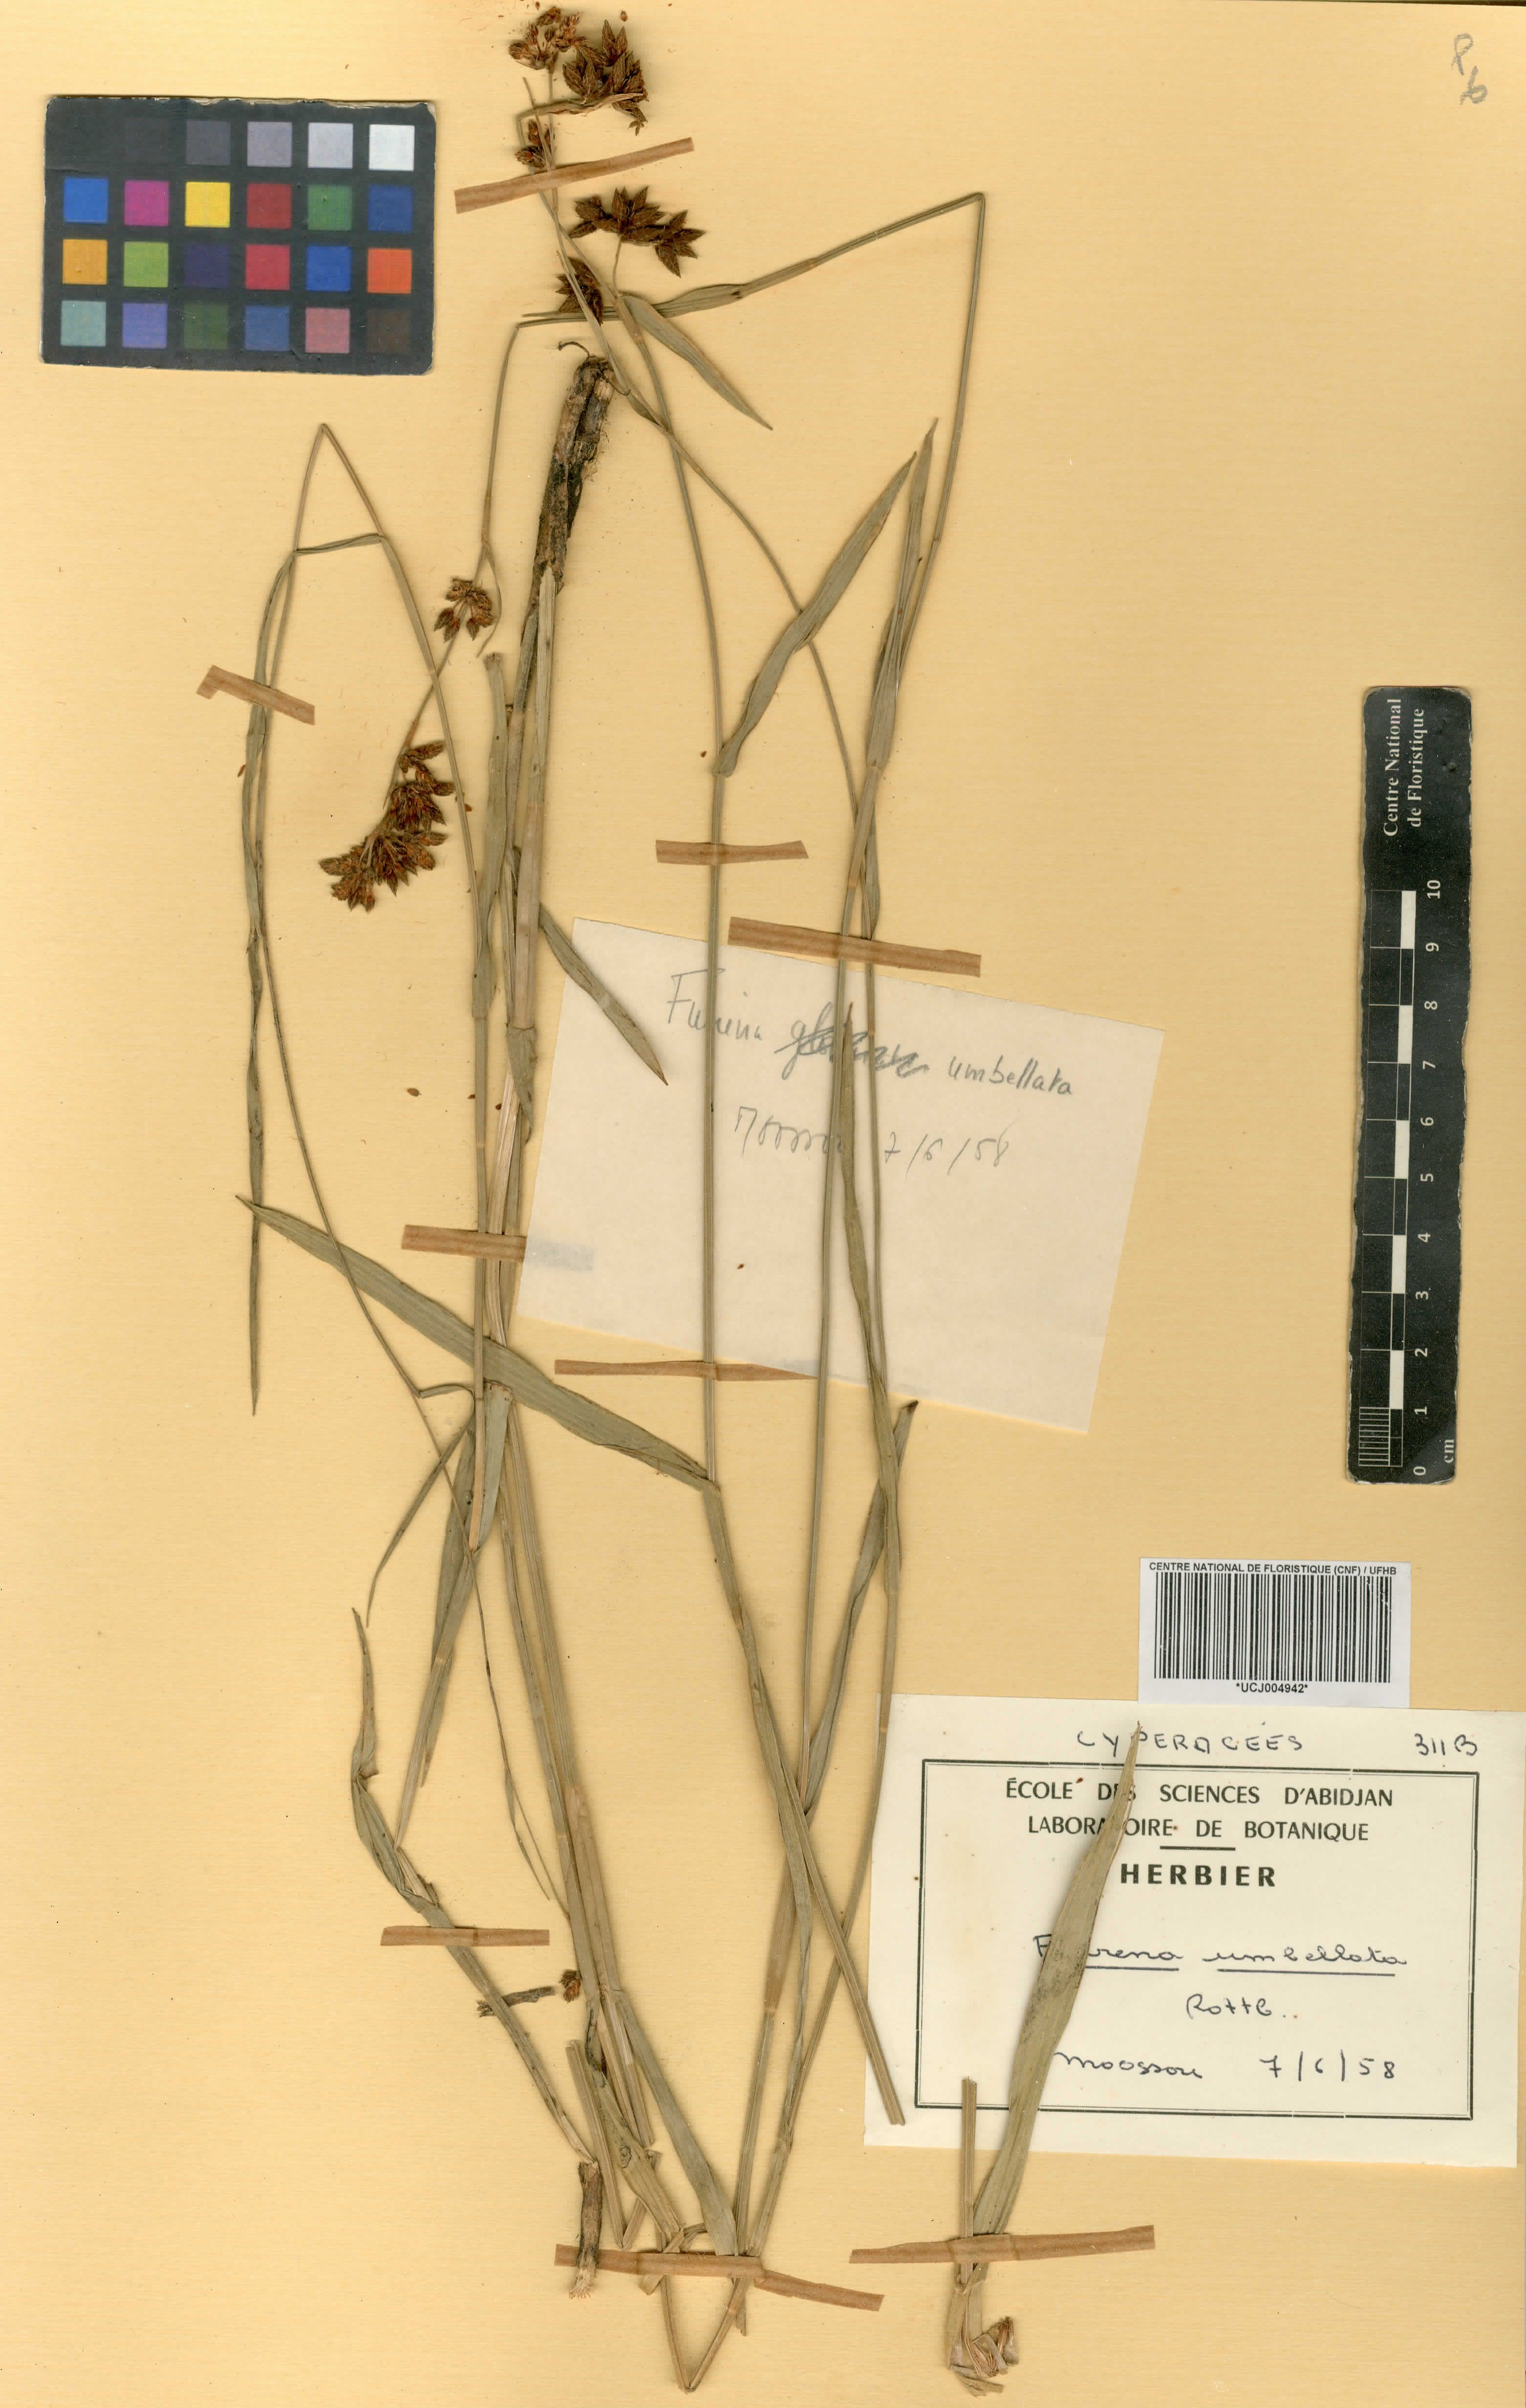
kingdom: Plantae
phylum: Tracheophyta
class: Liliopsida
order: Poales
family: Cyperaceae
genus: Fuirena
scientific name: Fuirena umbellata
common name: Yefen
